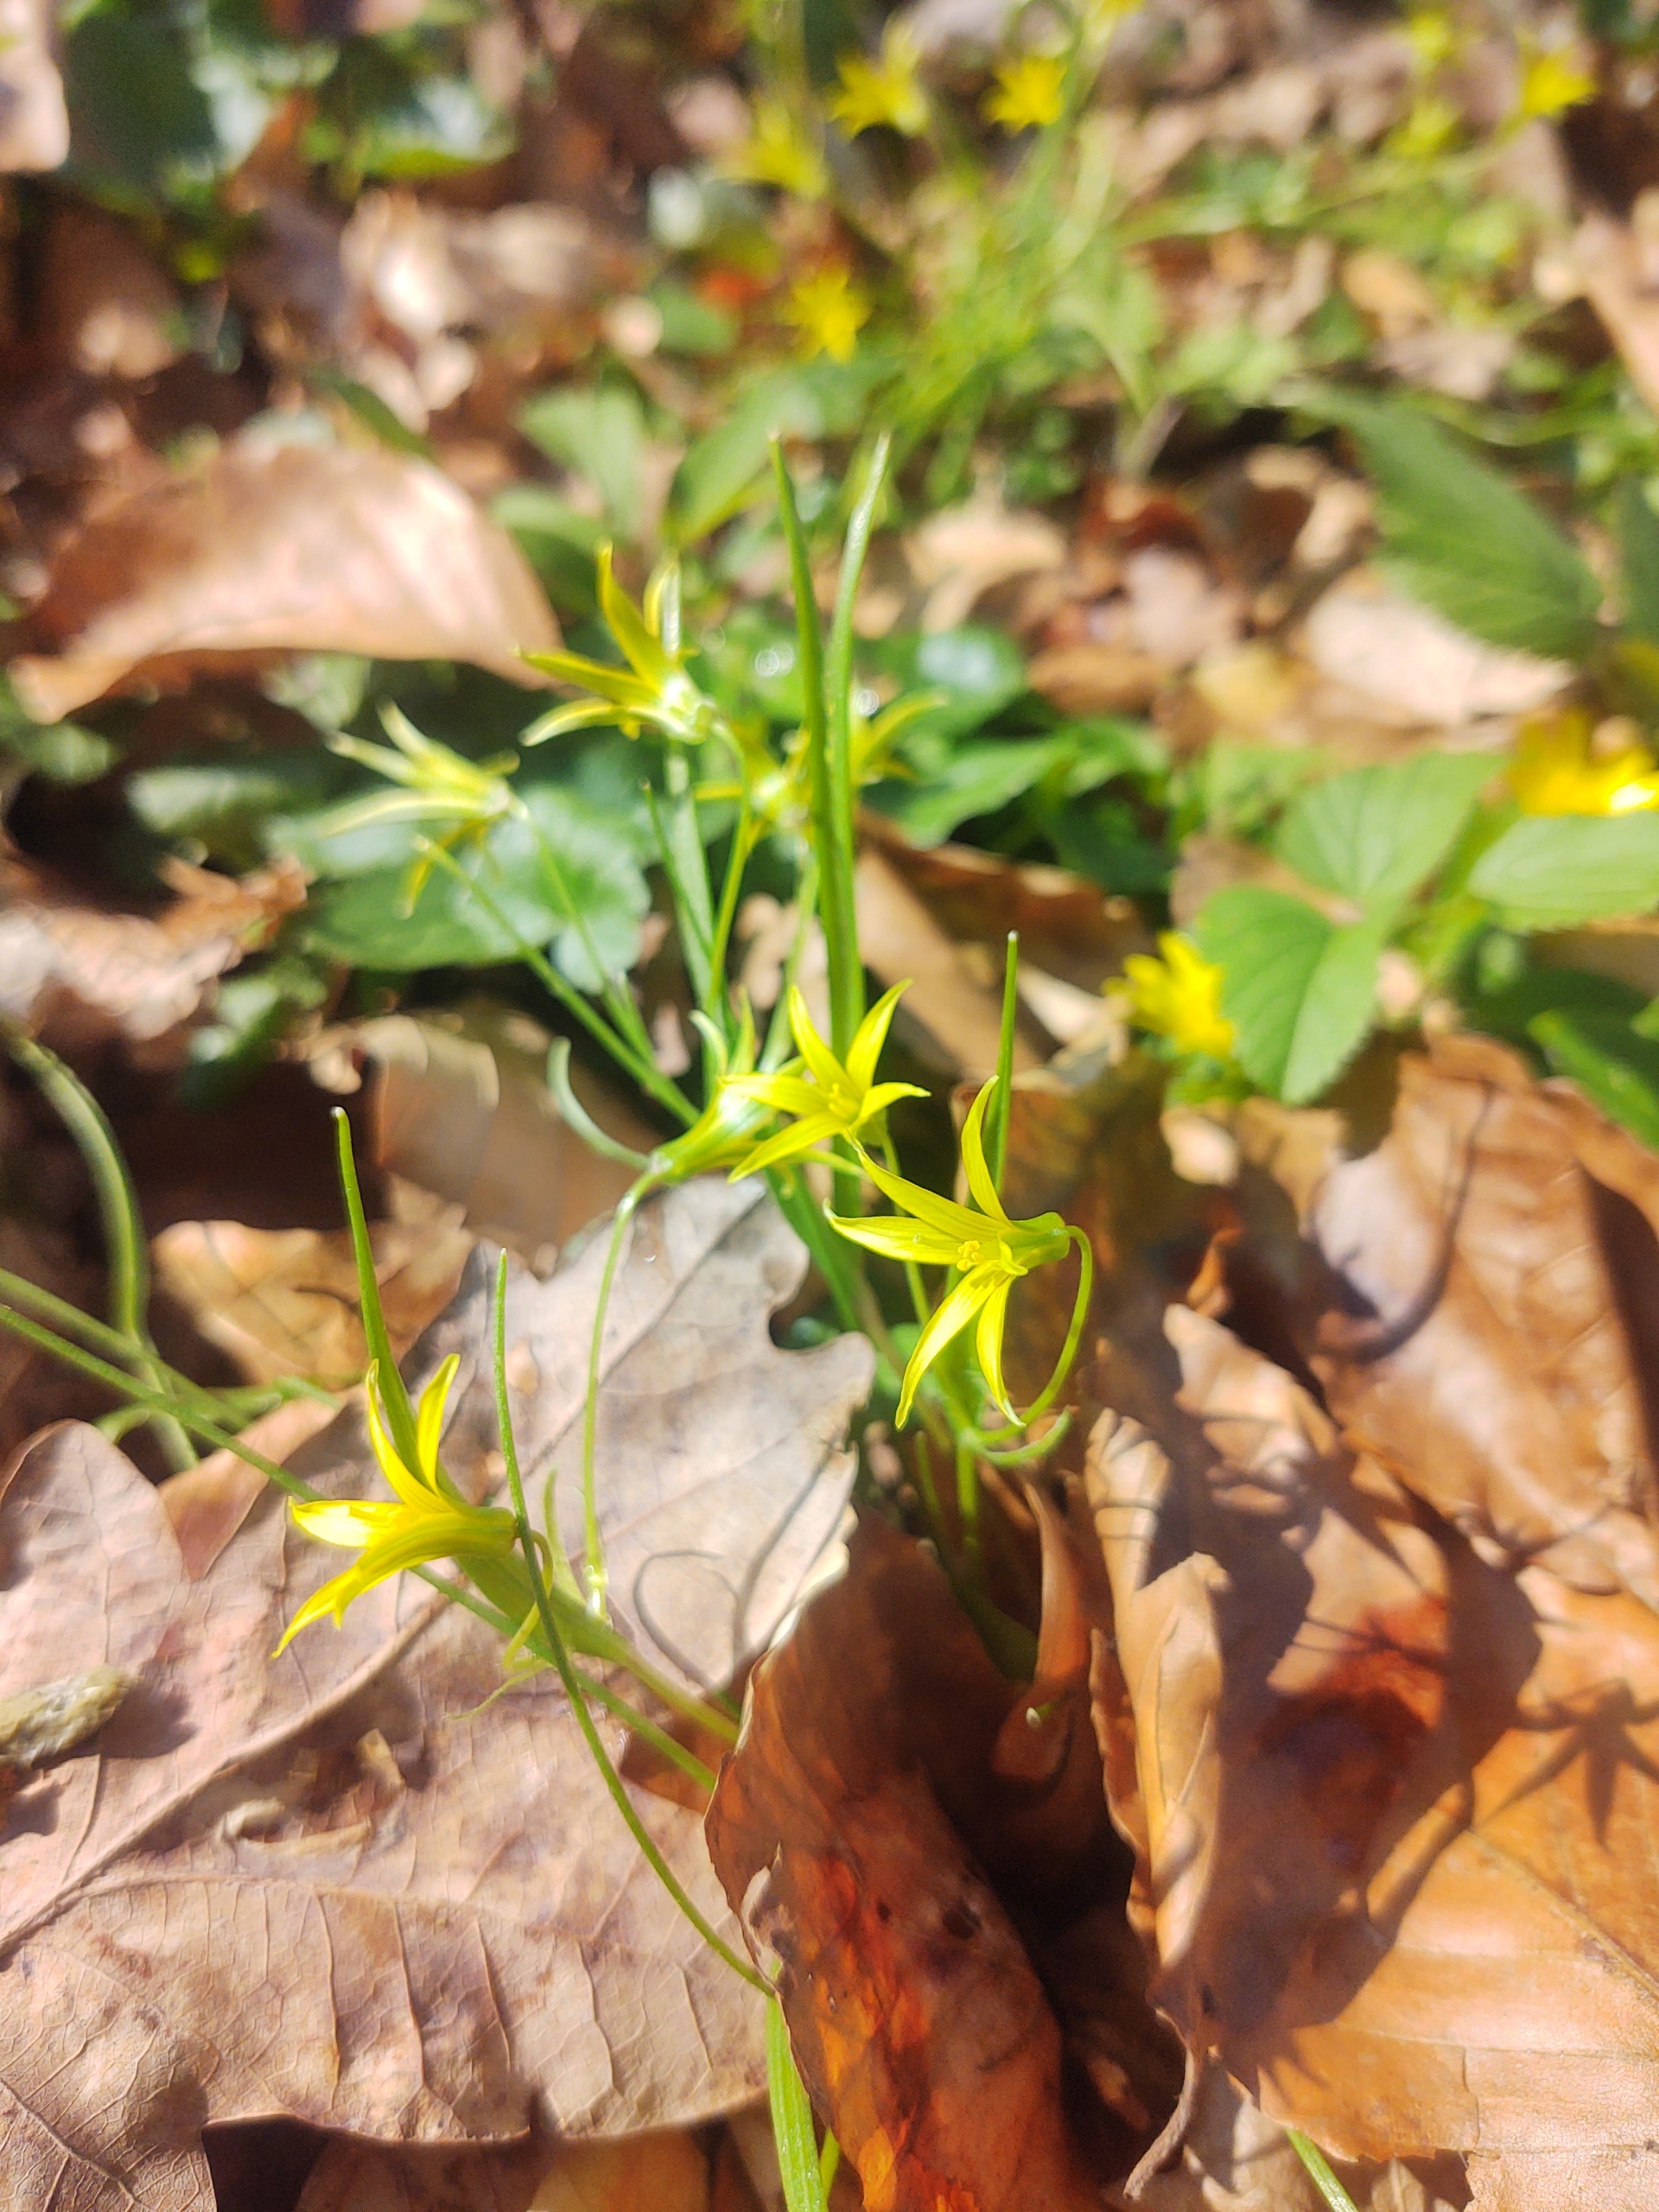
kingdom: Plantae
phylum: Tracheophyta
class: Liliopsida
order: Liliales
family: Liliaceae
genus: Gagea
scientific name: Gagea minima
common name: Liden guldstjerne
